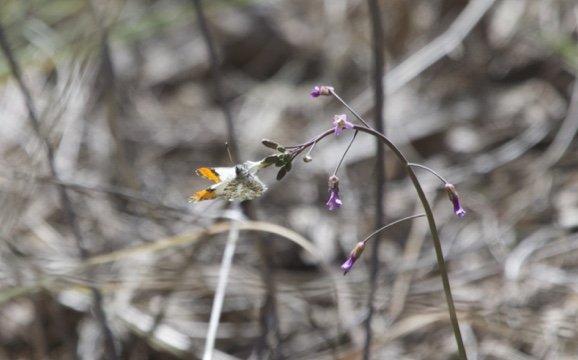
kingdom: Animalia
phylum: Arthropoda
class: Insecta
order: Lepidoptera
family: Pieridae
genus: Anthocharis
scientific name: Anthocharis thoosa
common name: Southwestern Orangetip
